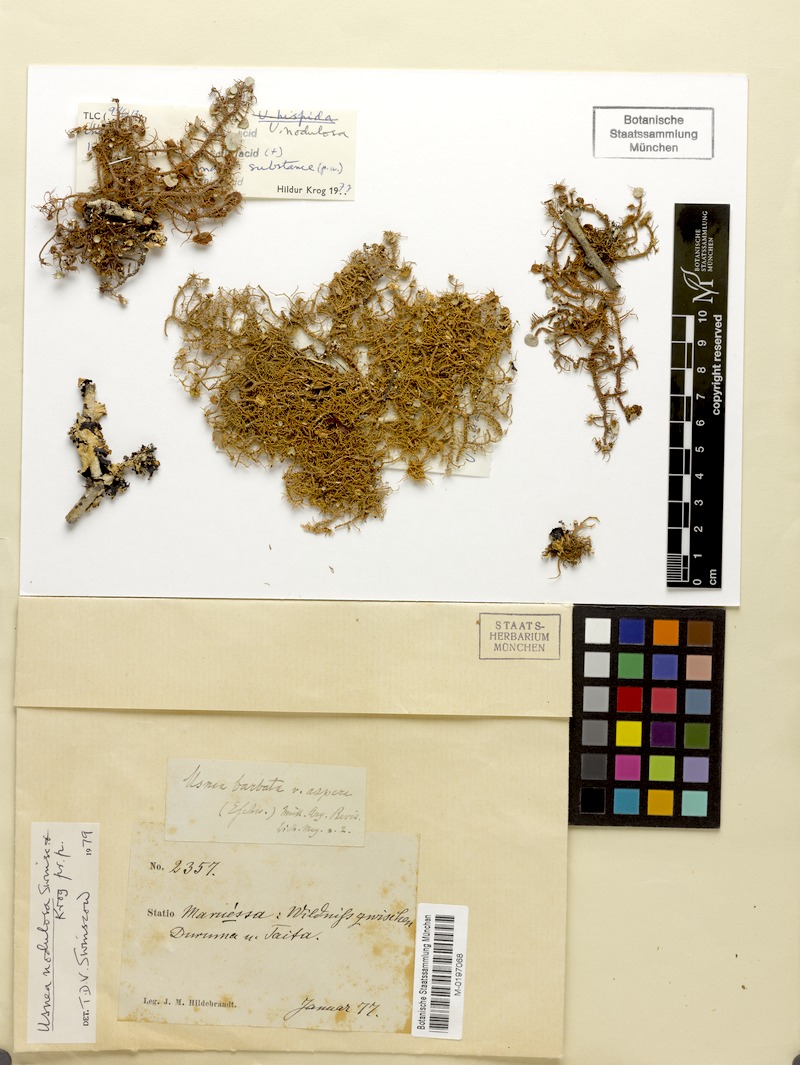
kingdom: Fungi
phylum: Ascomycota
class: Lecanoromycetes
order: Lecanorales
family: Parmeliaceae
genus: Usnea
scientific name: Usnea nodulosa
